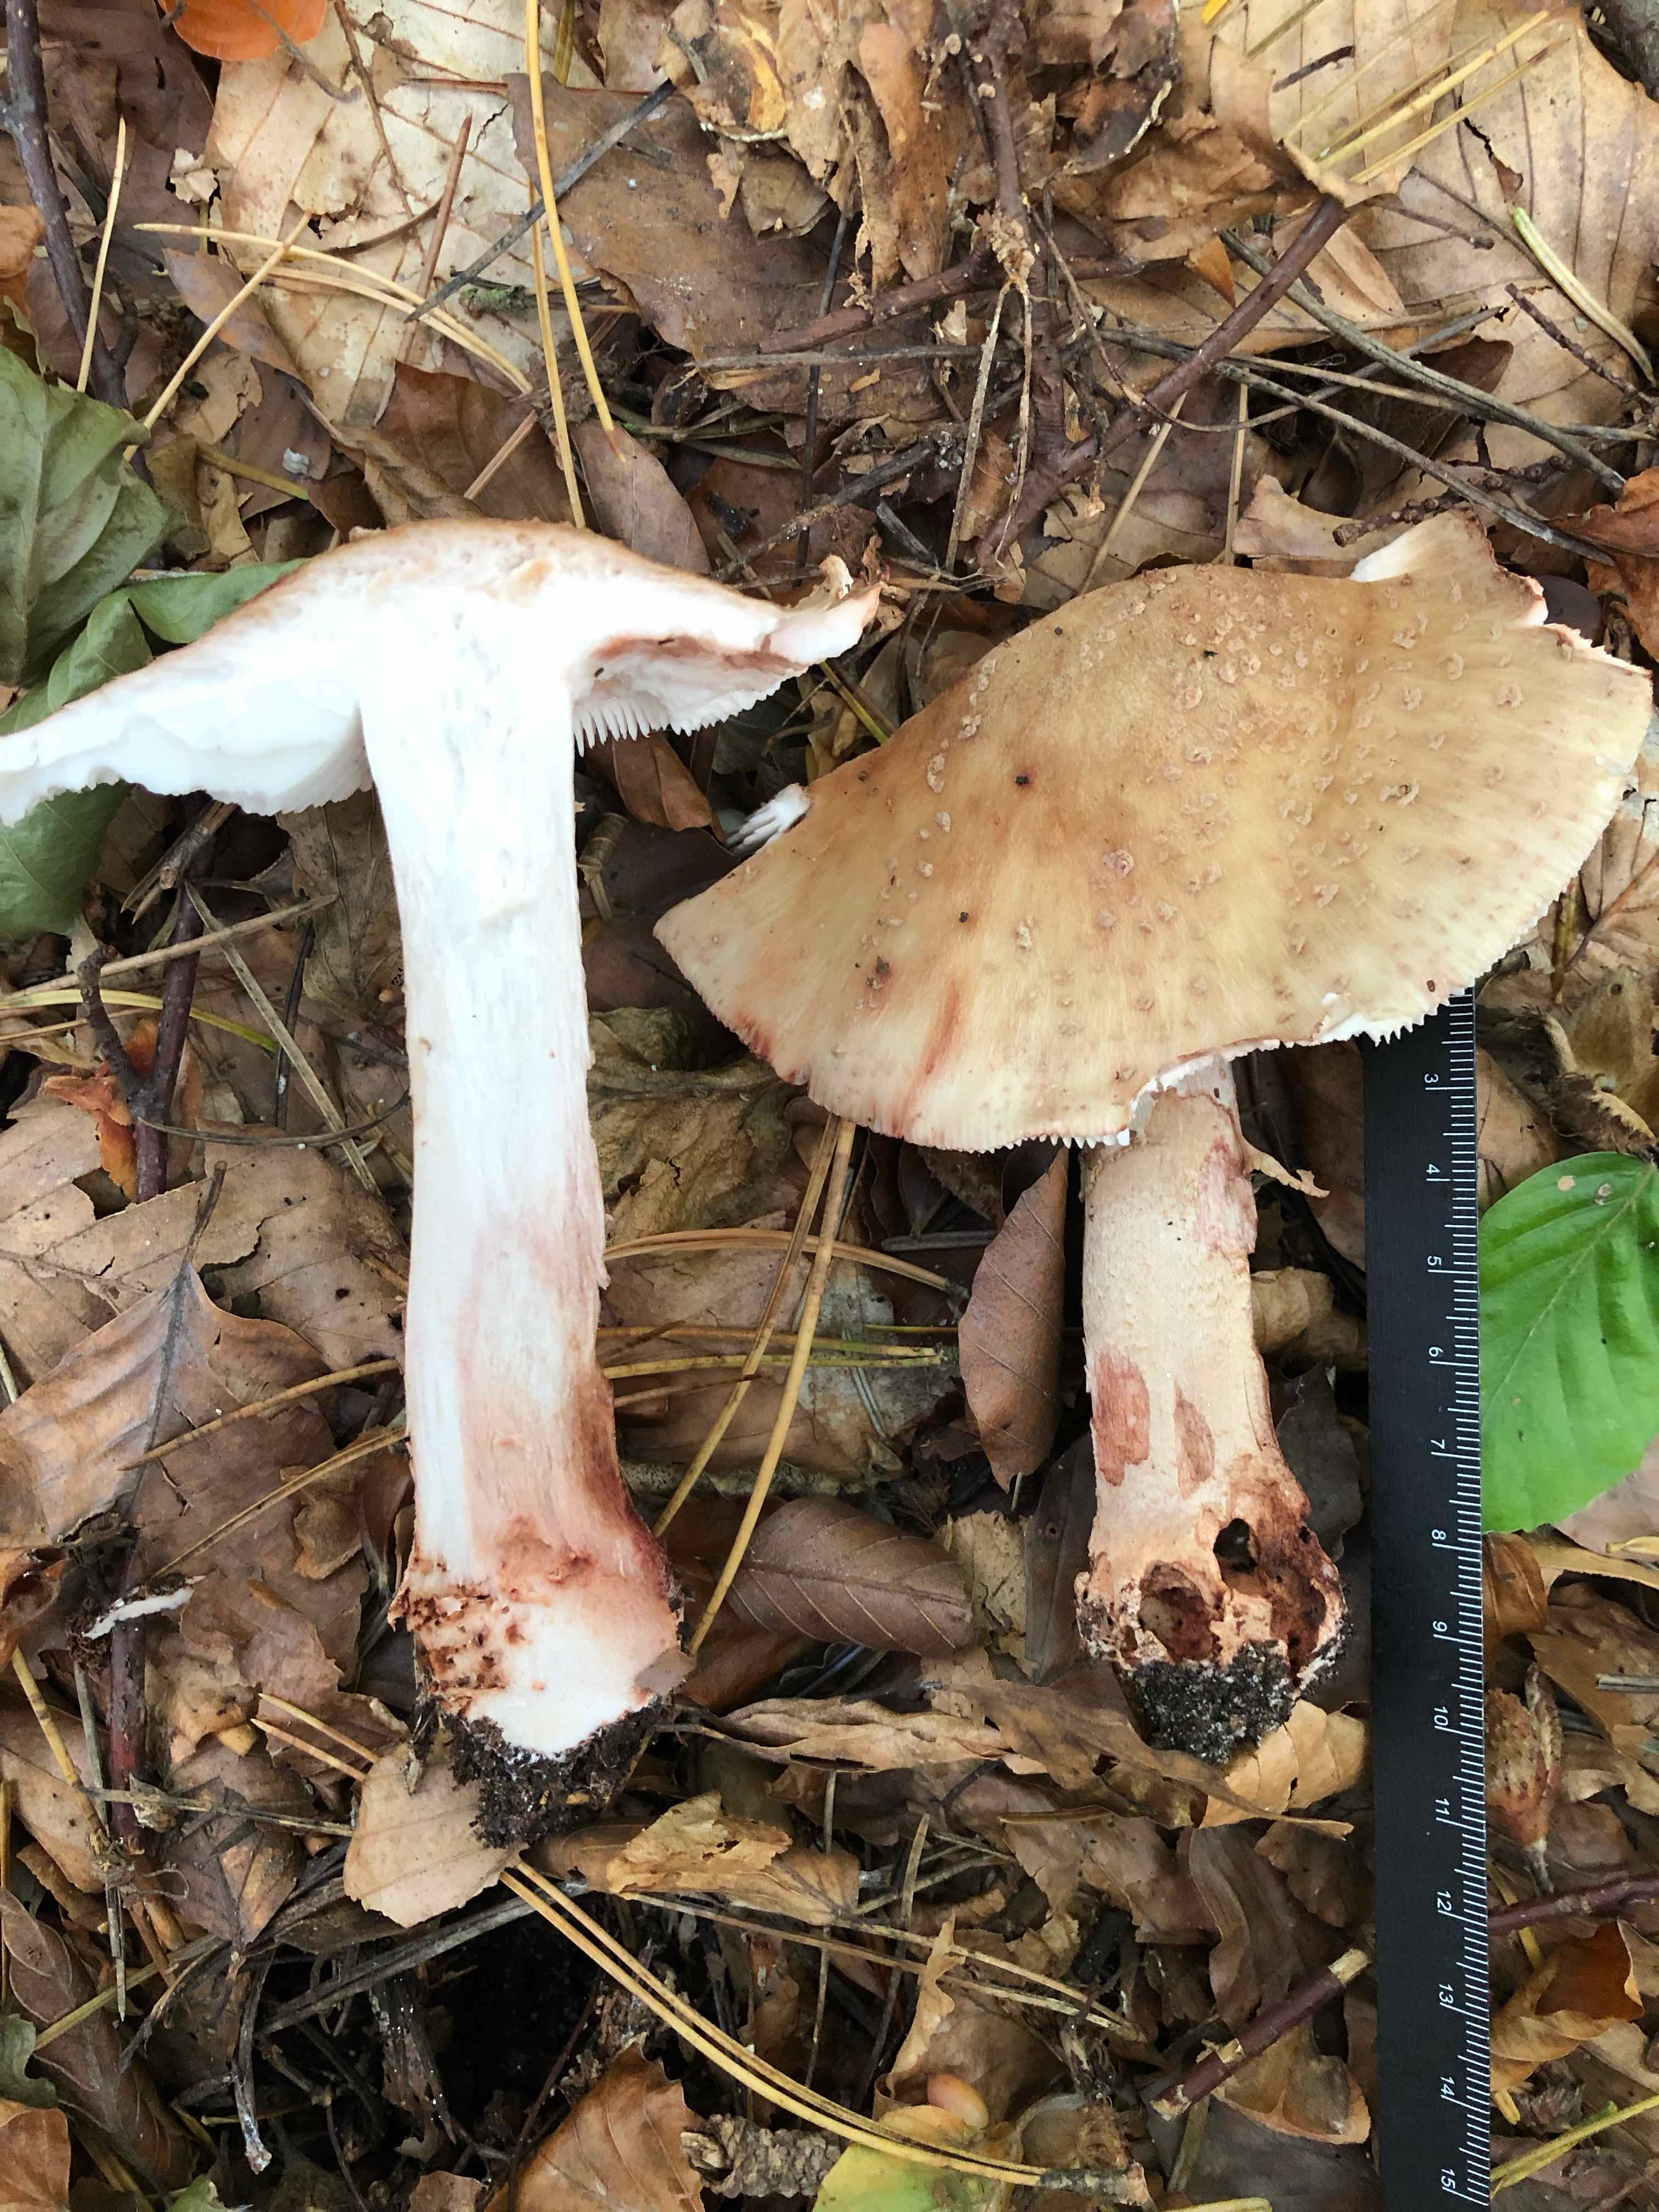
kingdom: Fungi
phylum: Basidiomycota
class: Agaricomycetes
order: Agaricales
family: Amanitaceae
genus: Amanita
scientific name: Amanita rubescens
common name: rødmende fluesvamp
